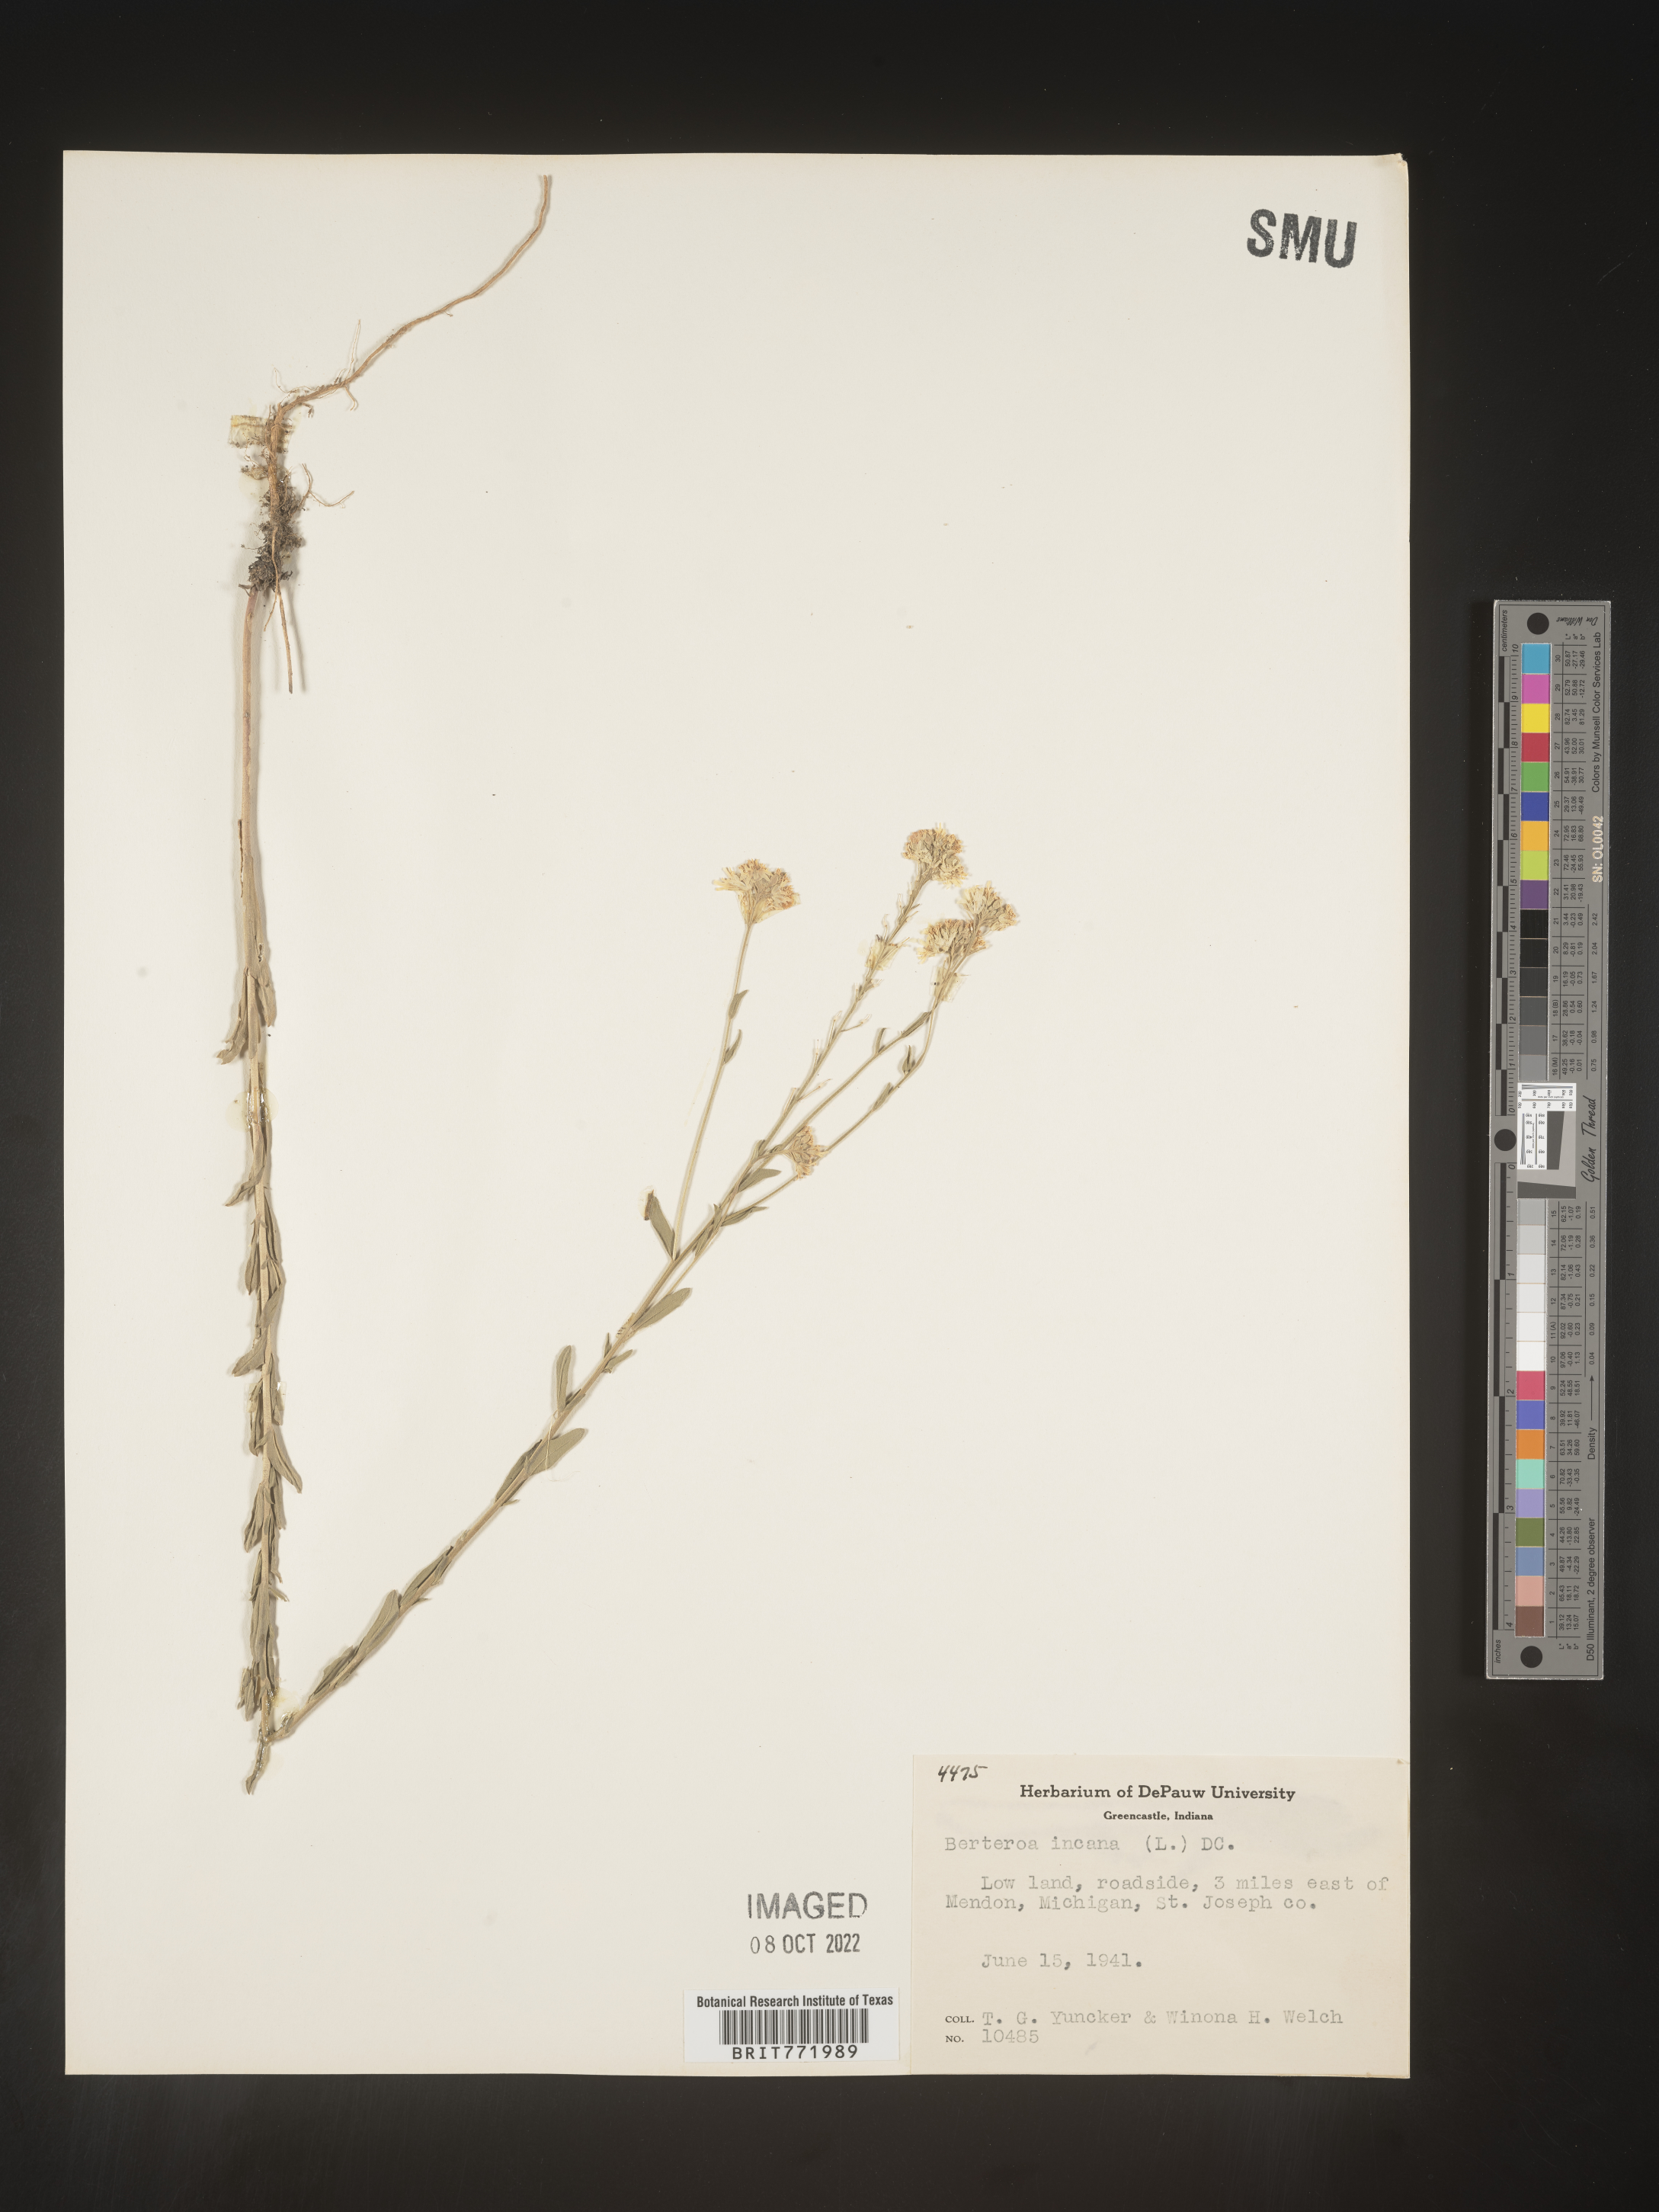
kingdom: Plantae
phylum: Tracheophyta
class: Magnoliopsida
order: Brassicales
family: Brassicaceae
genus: Berteroa
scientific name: Berteroa incana
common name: Hoary alison
